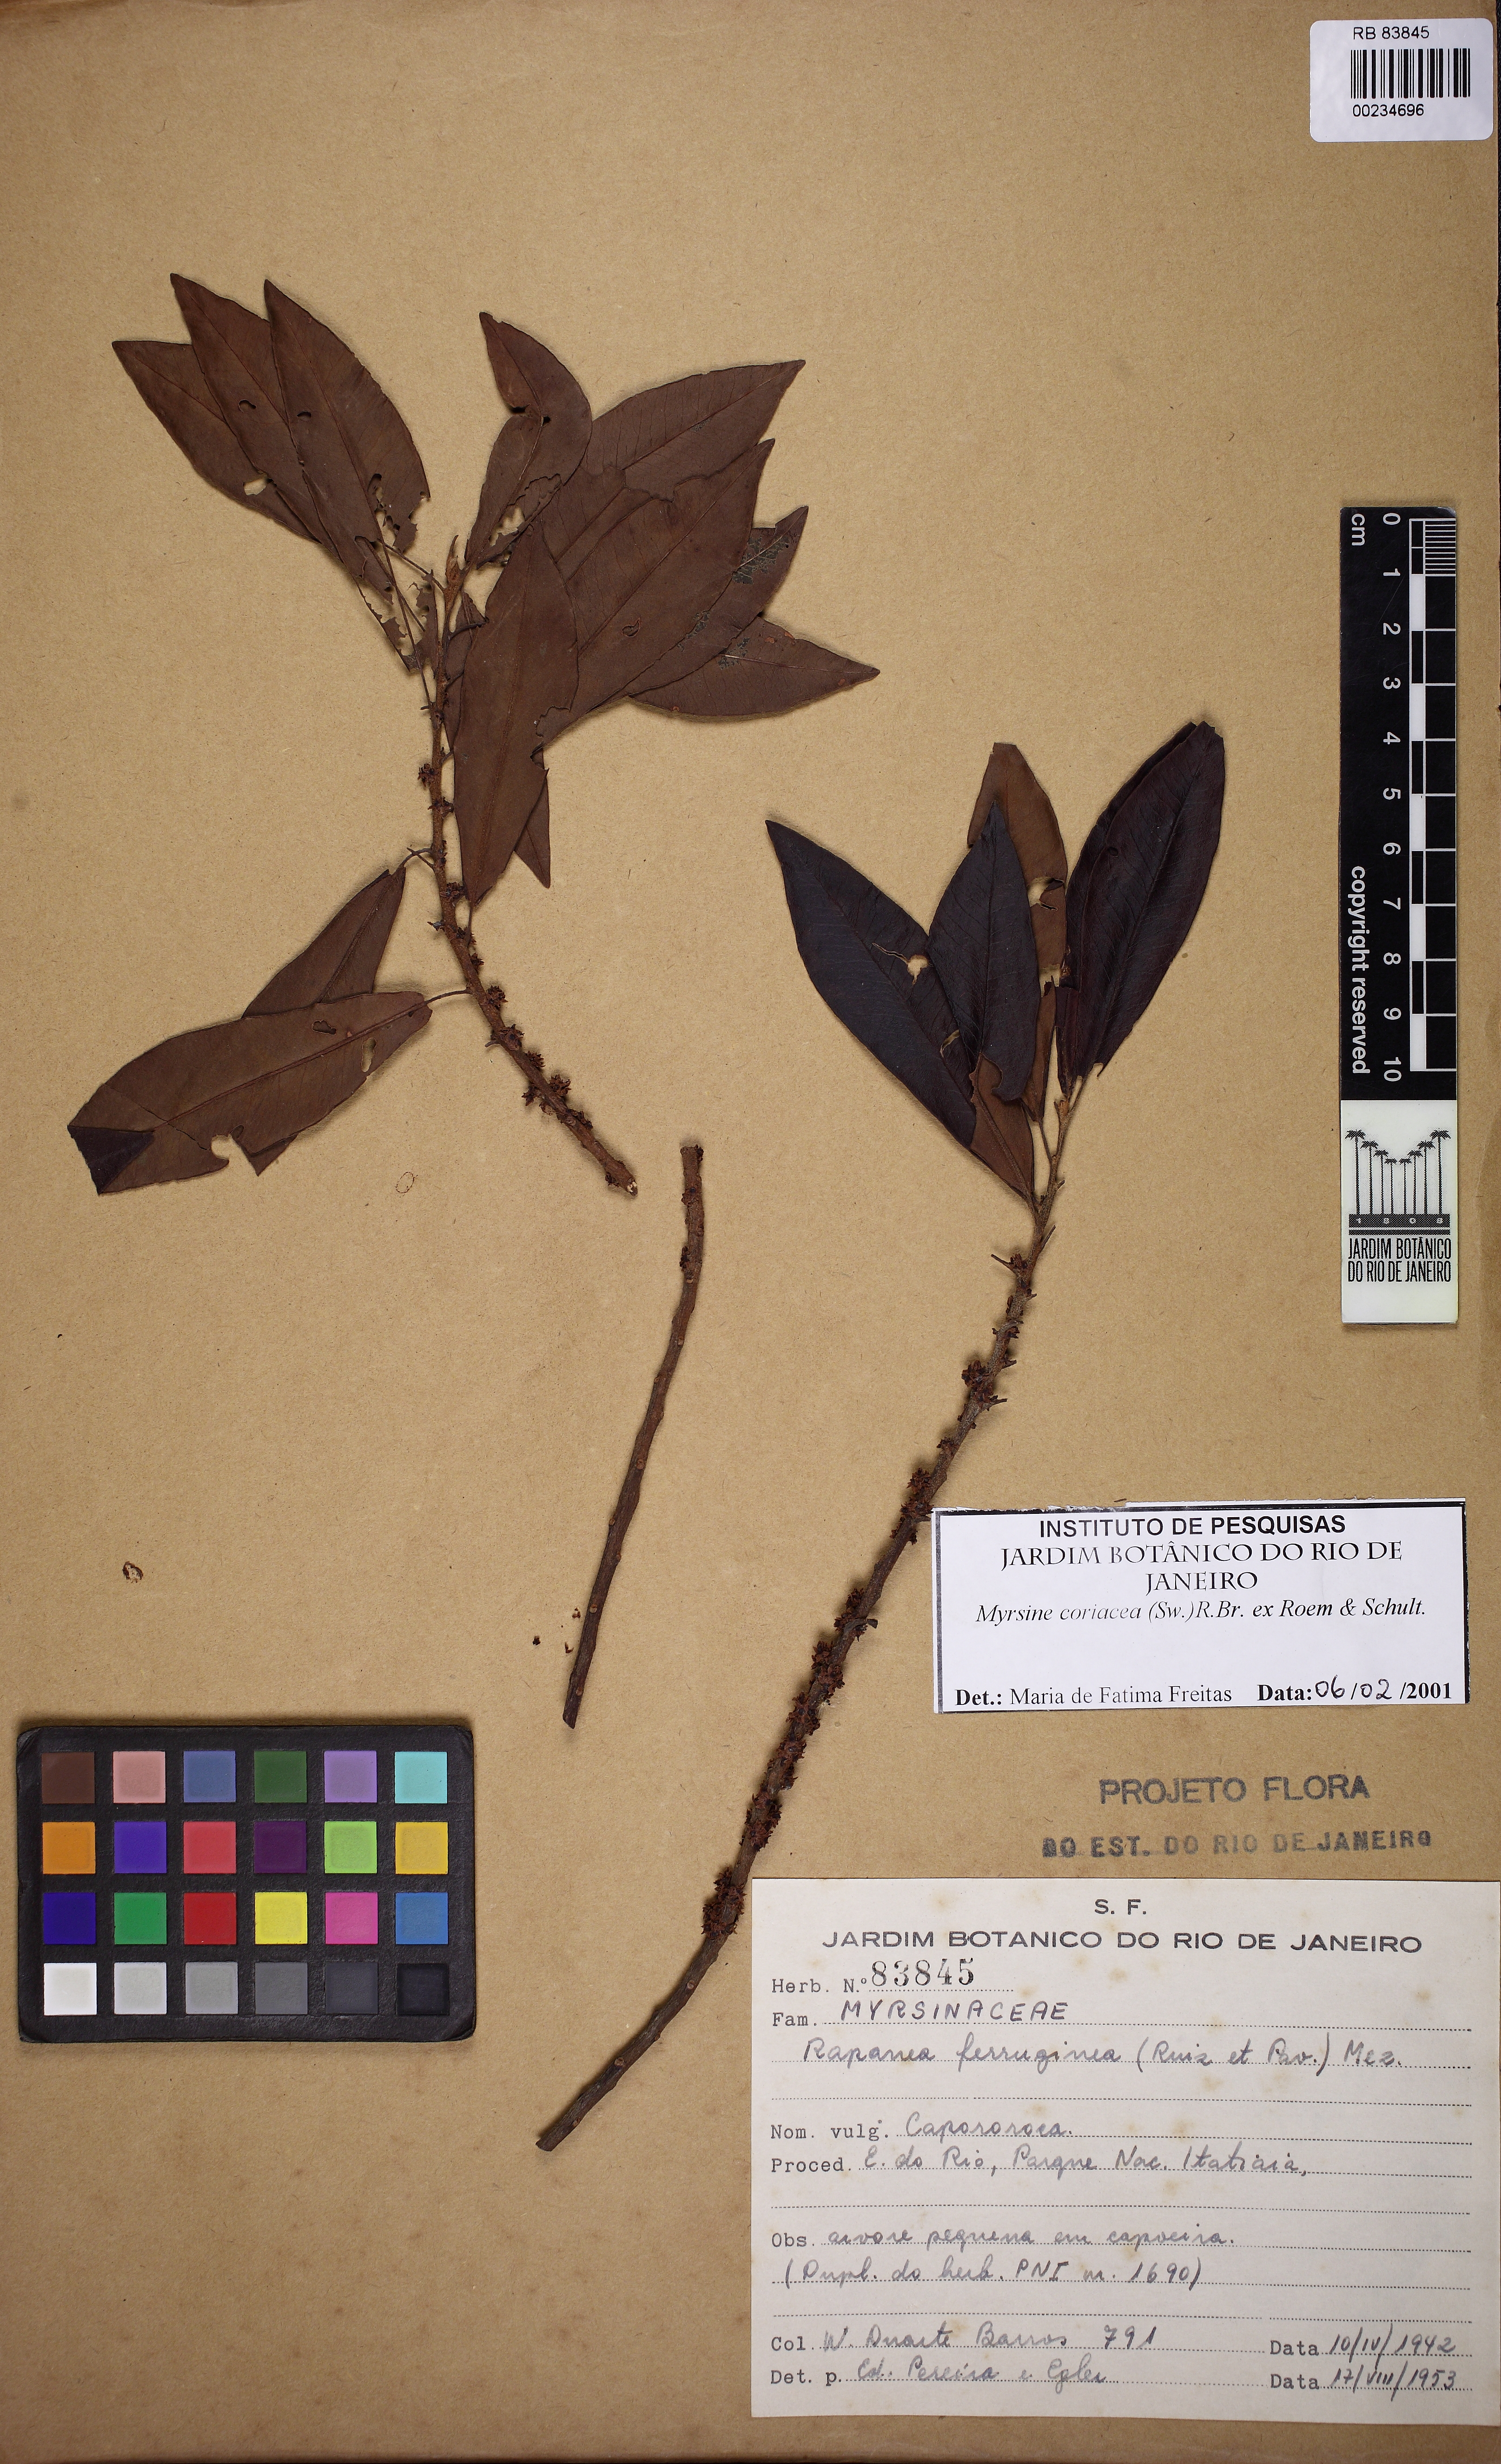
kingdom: Plantae
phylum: Tracheophyta
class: Magnoliopsida
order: Ericales
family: Primulaceae
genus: Myrsine
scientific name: Myrsine coriacea
